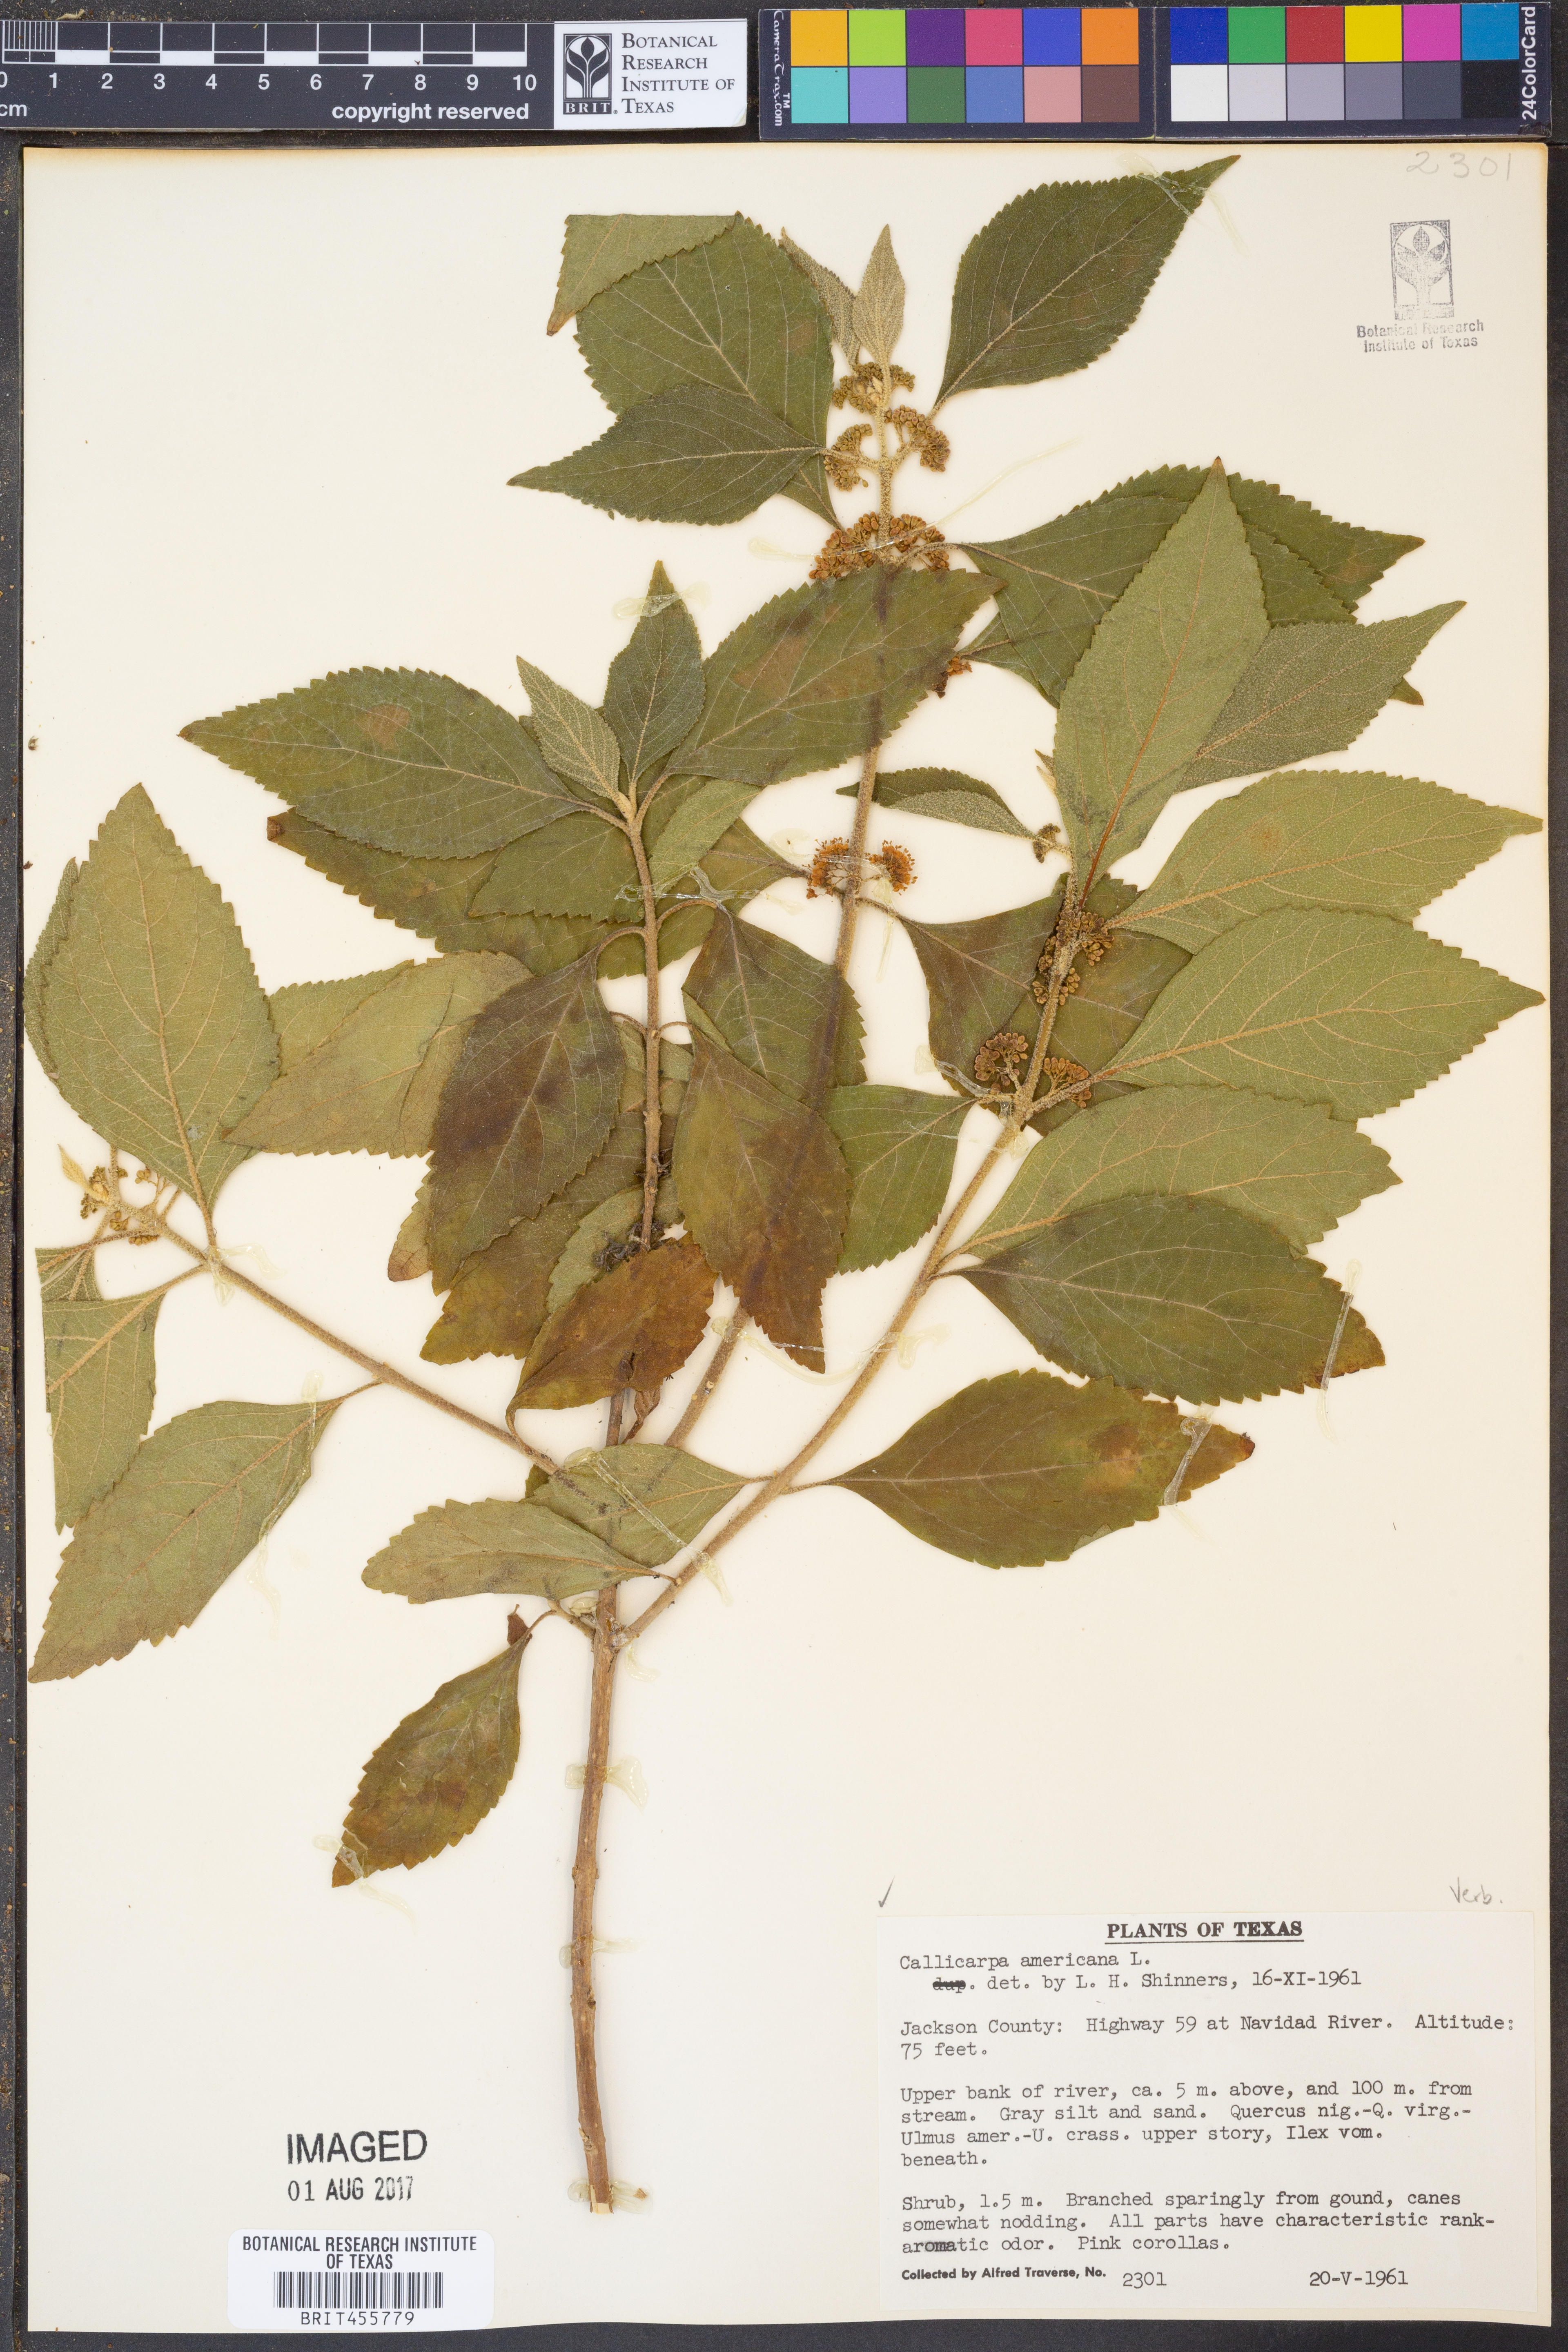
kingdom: Plantae
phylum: Tracheophyta
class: Magnoliopsida
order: Lamiales
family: Lamiaceae
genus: Callicarpa
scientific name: Callicarpa americana
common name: American beautyberry
